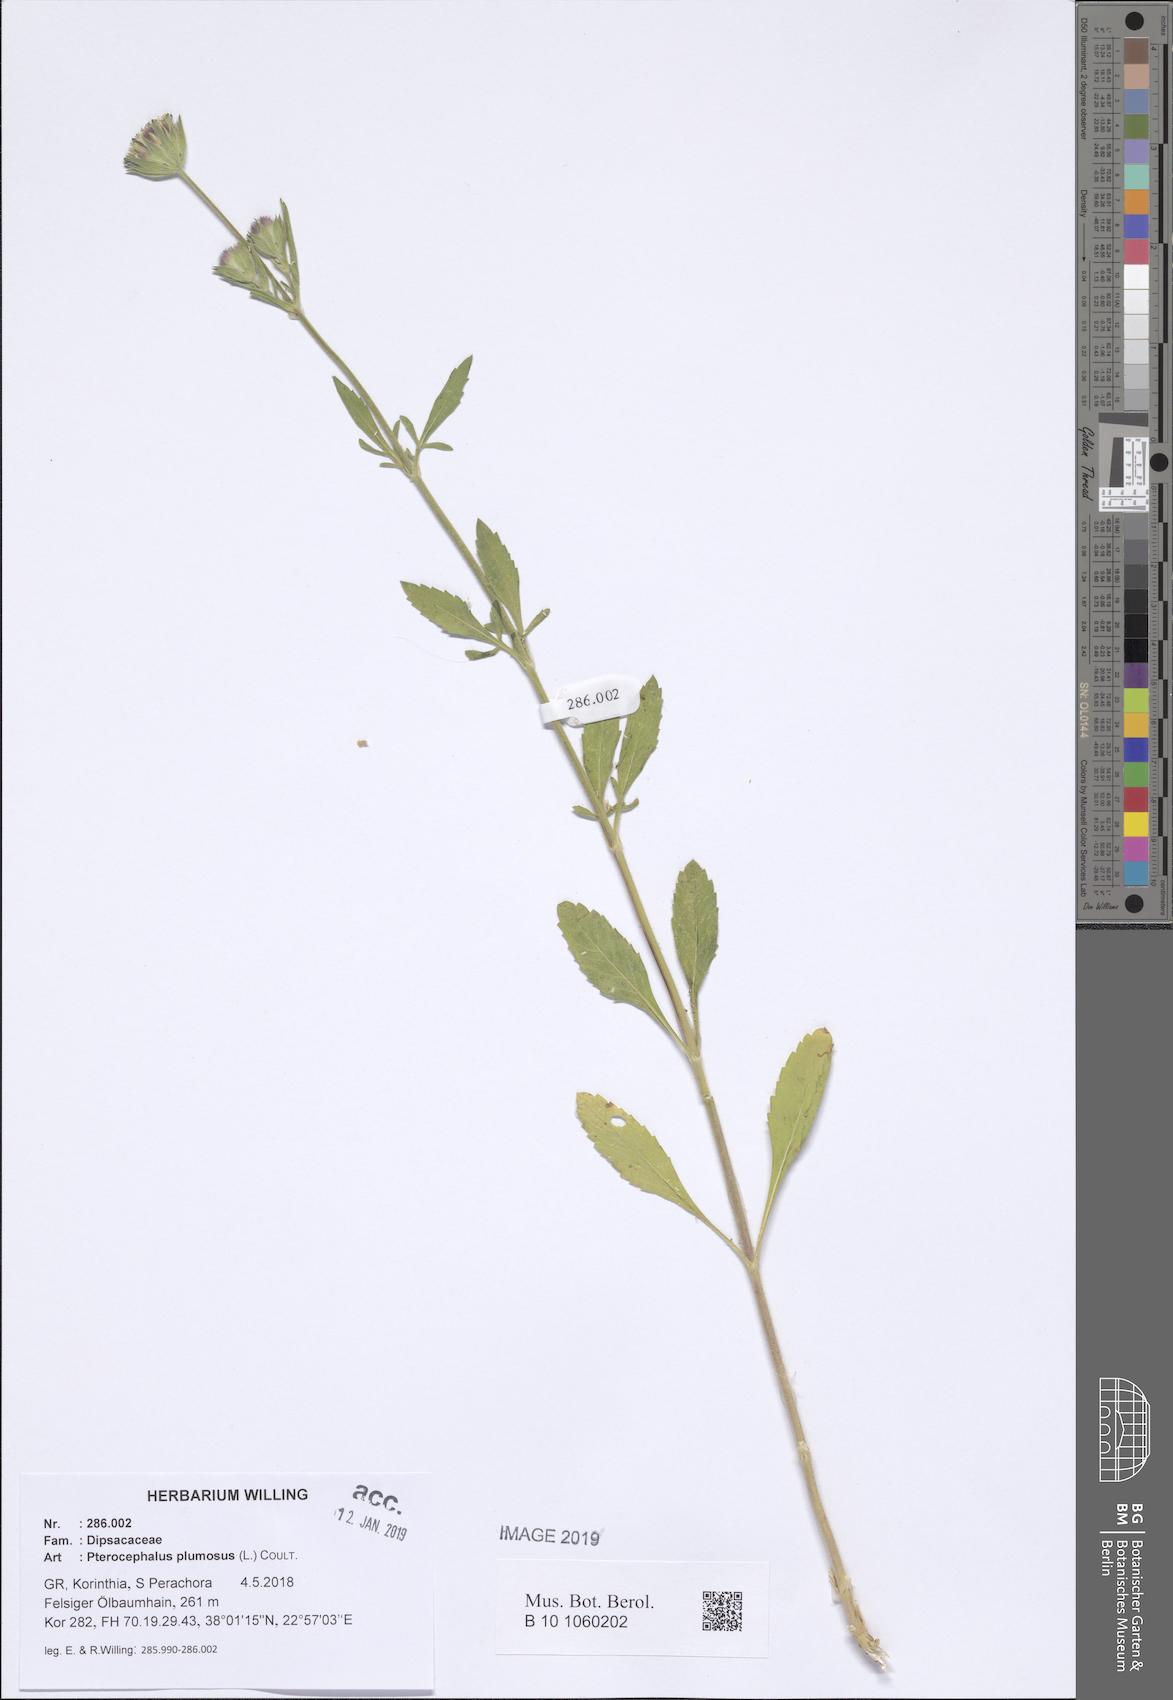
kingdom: Plantae
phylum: Tracheophyta
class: Magnoliopsida
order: Dipsacales
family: Caprifoliaceae
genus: Pterocephalus
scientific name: Pterocephalus plumosus
